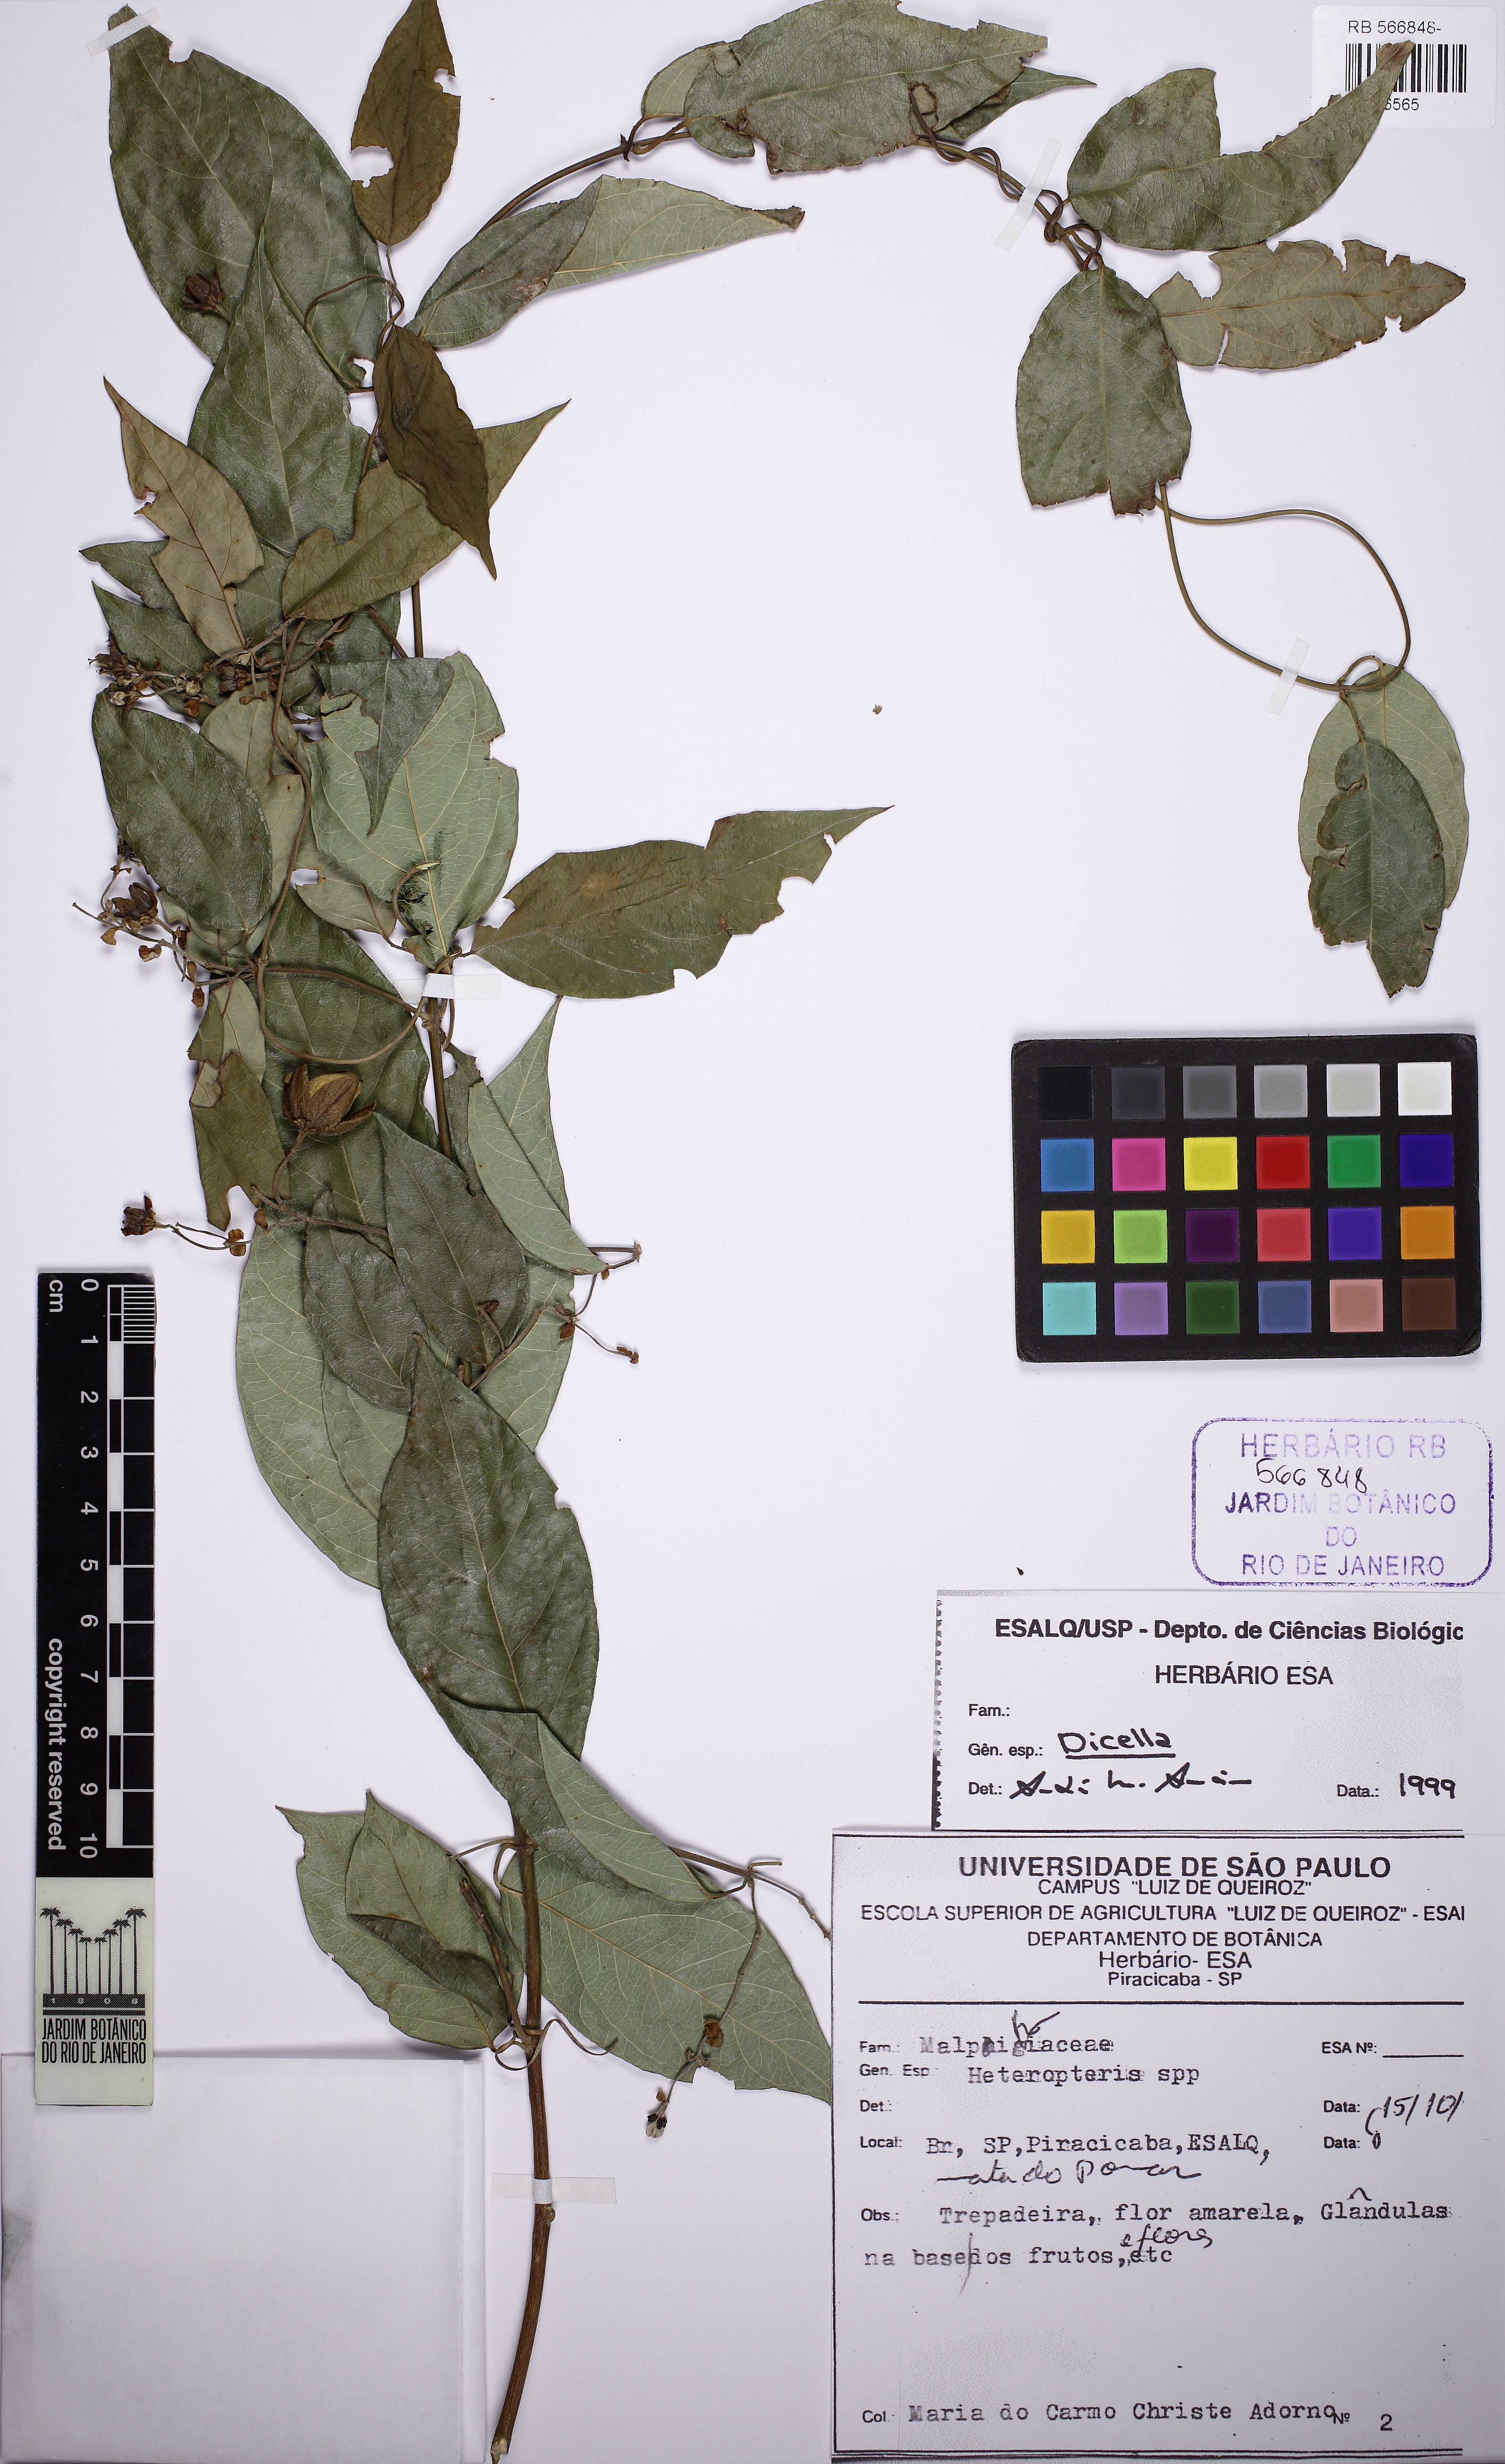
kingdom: Plantae
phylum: Tracheophyta
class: Magnoliopsida
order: Malpighiales
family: Malpighiaceae
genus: Dicella
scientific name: Dicella
